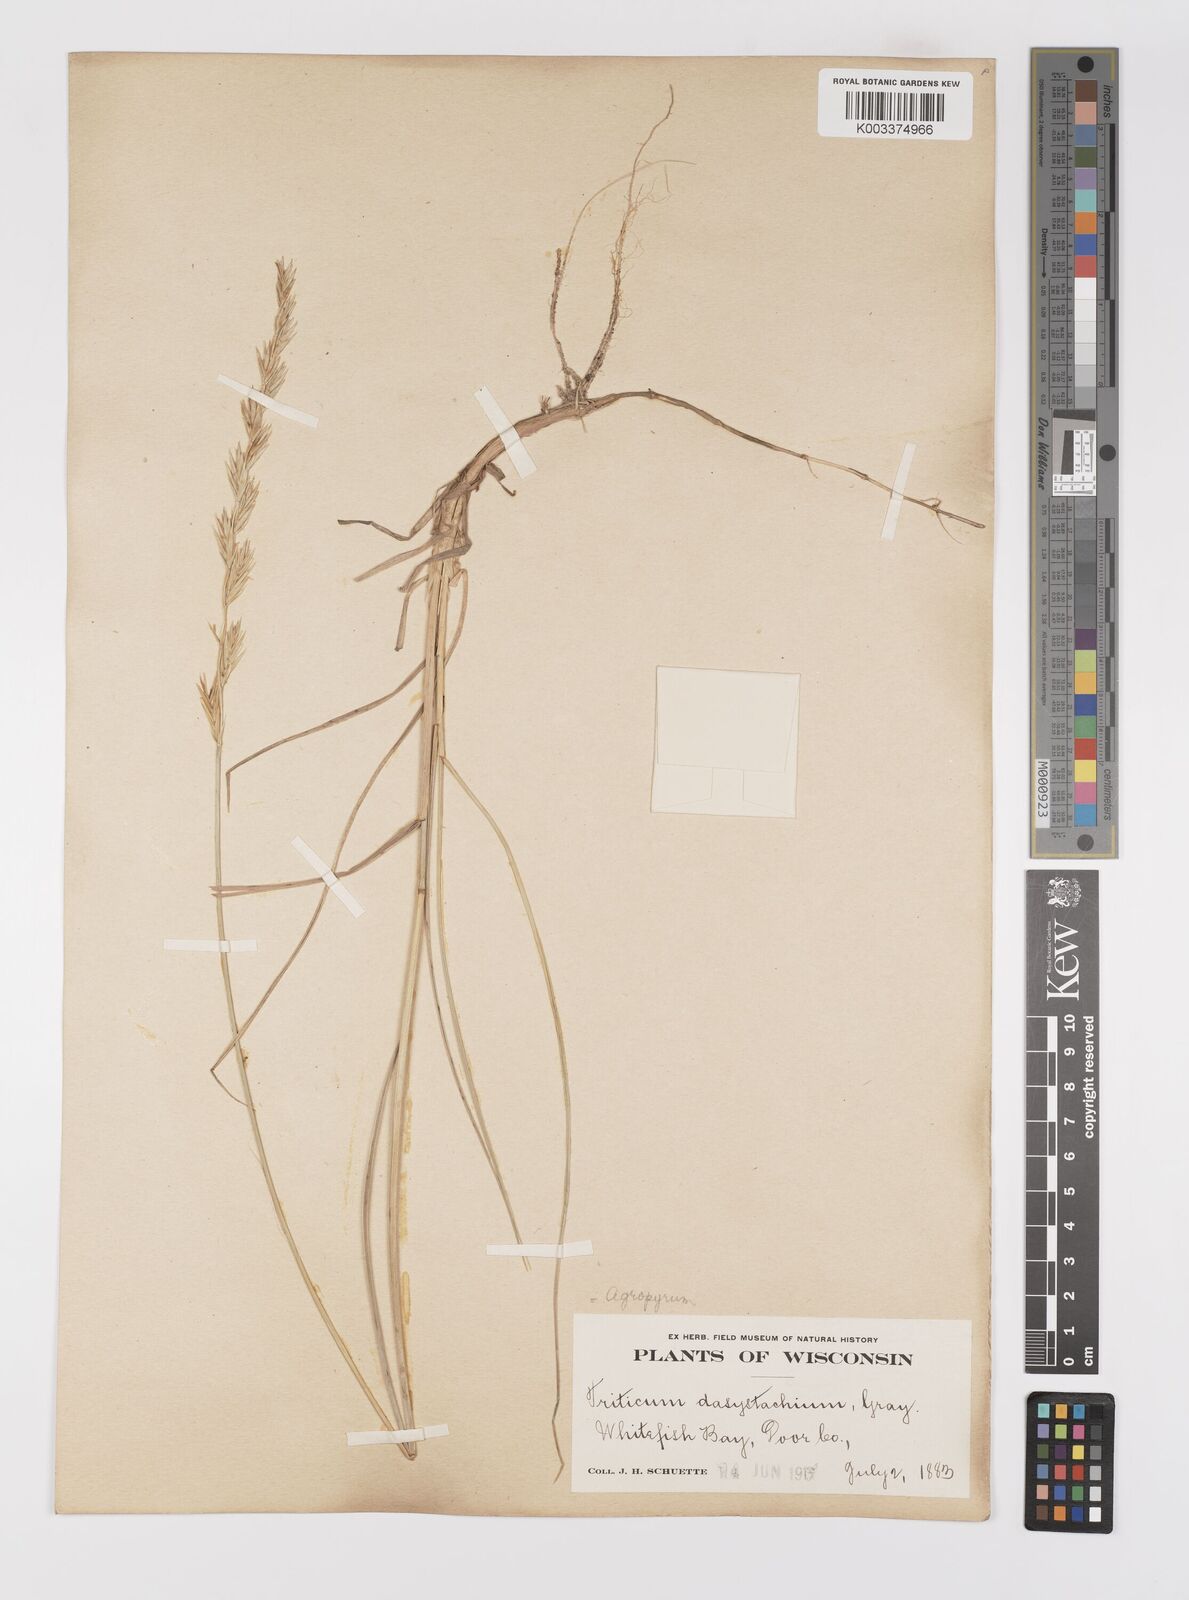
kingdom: Plantae
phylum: Tracheophyta
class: Liliopsida
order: Poales
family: Poaceae
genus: Elymus
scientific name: Elymus lanceolatus
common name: Thick-spike wheatgrass
